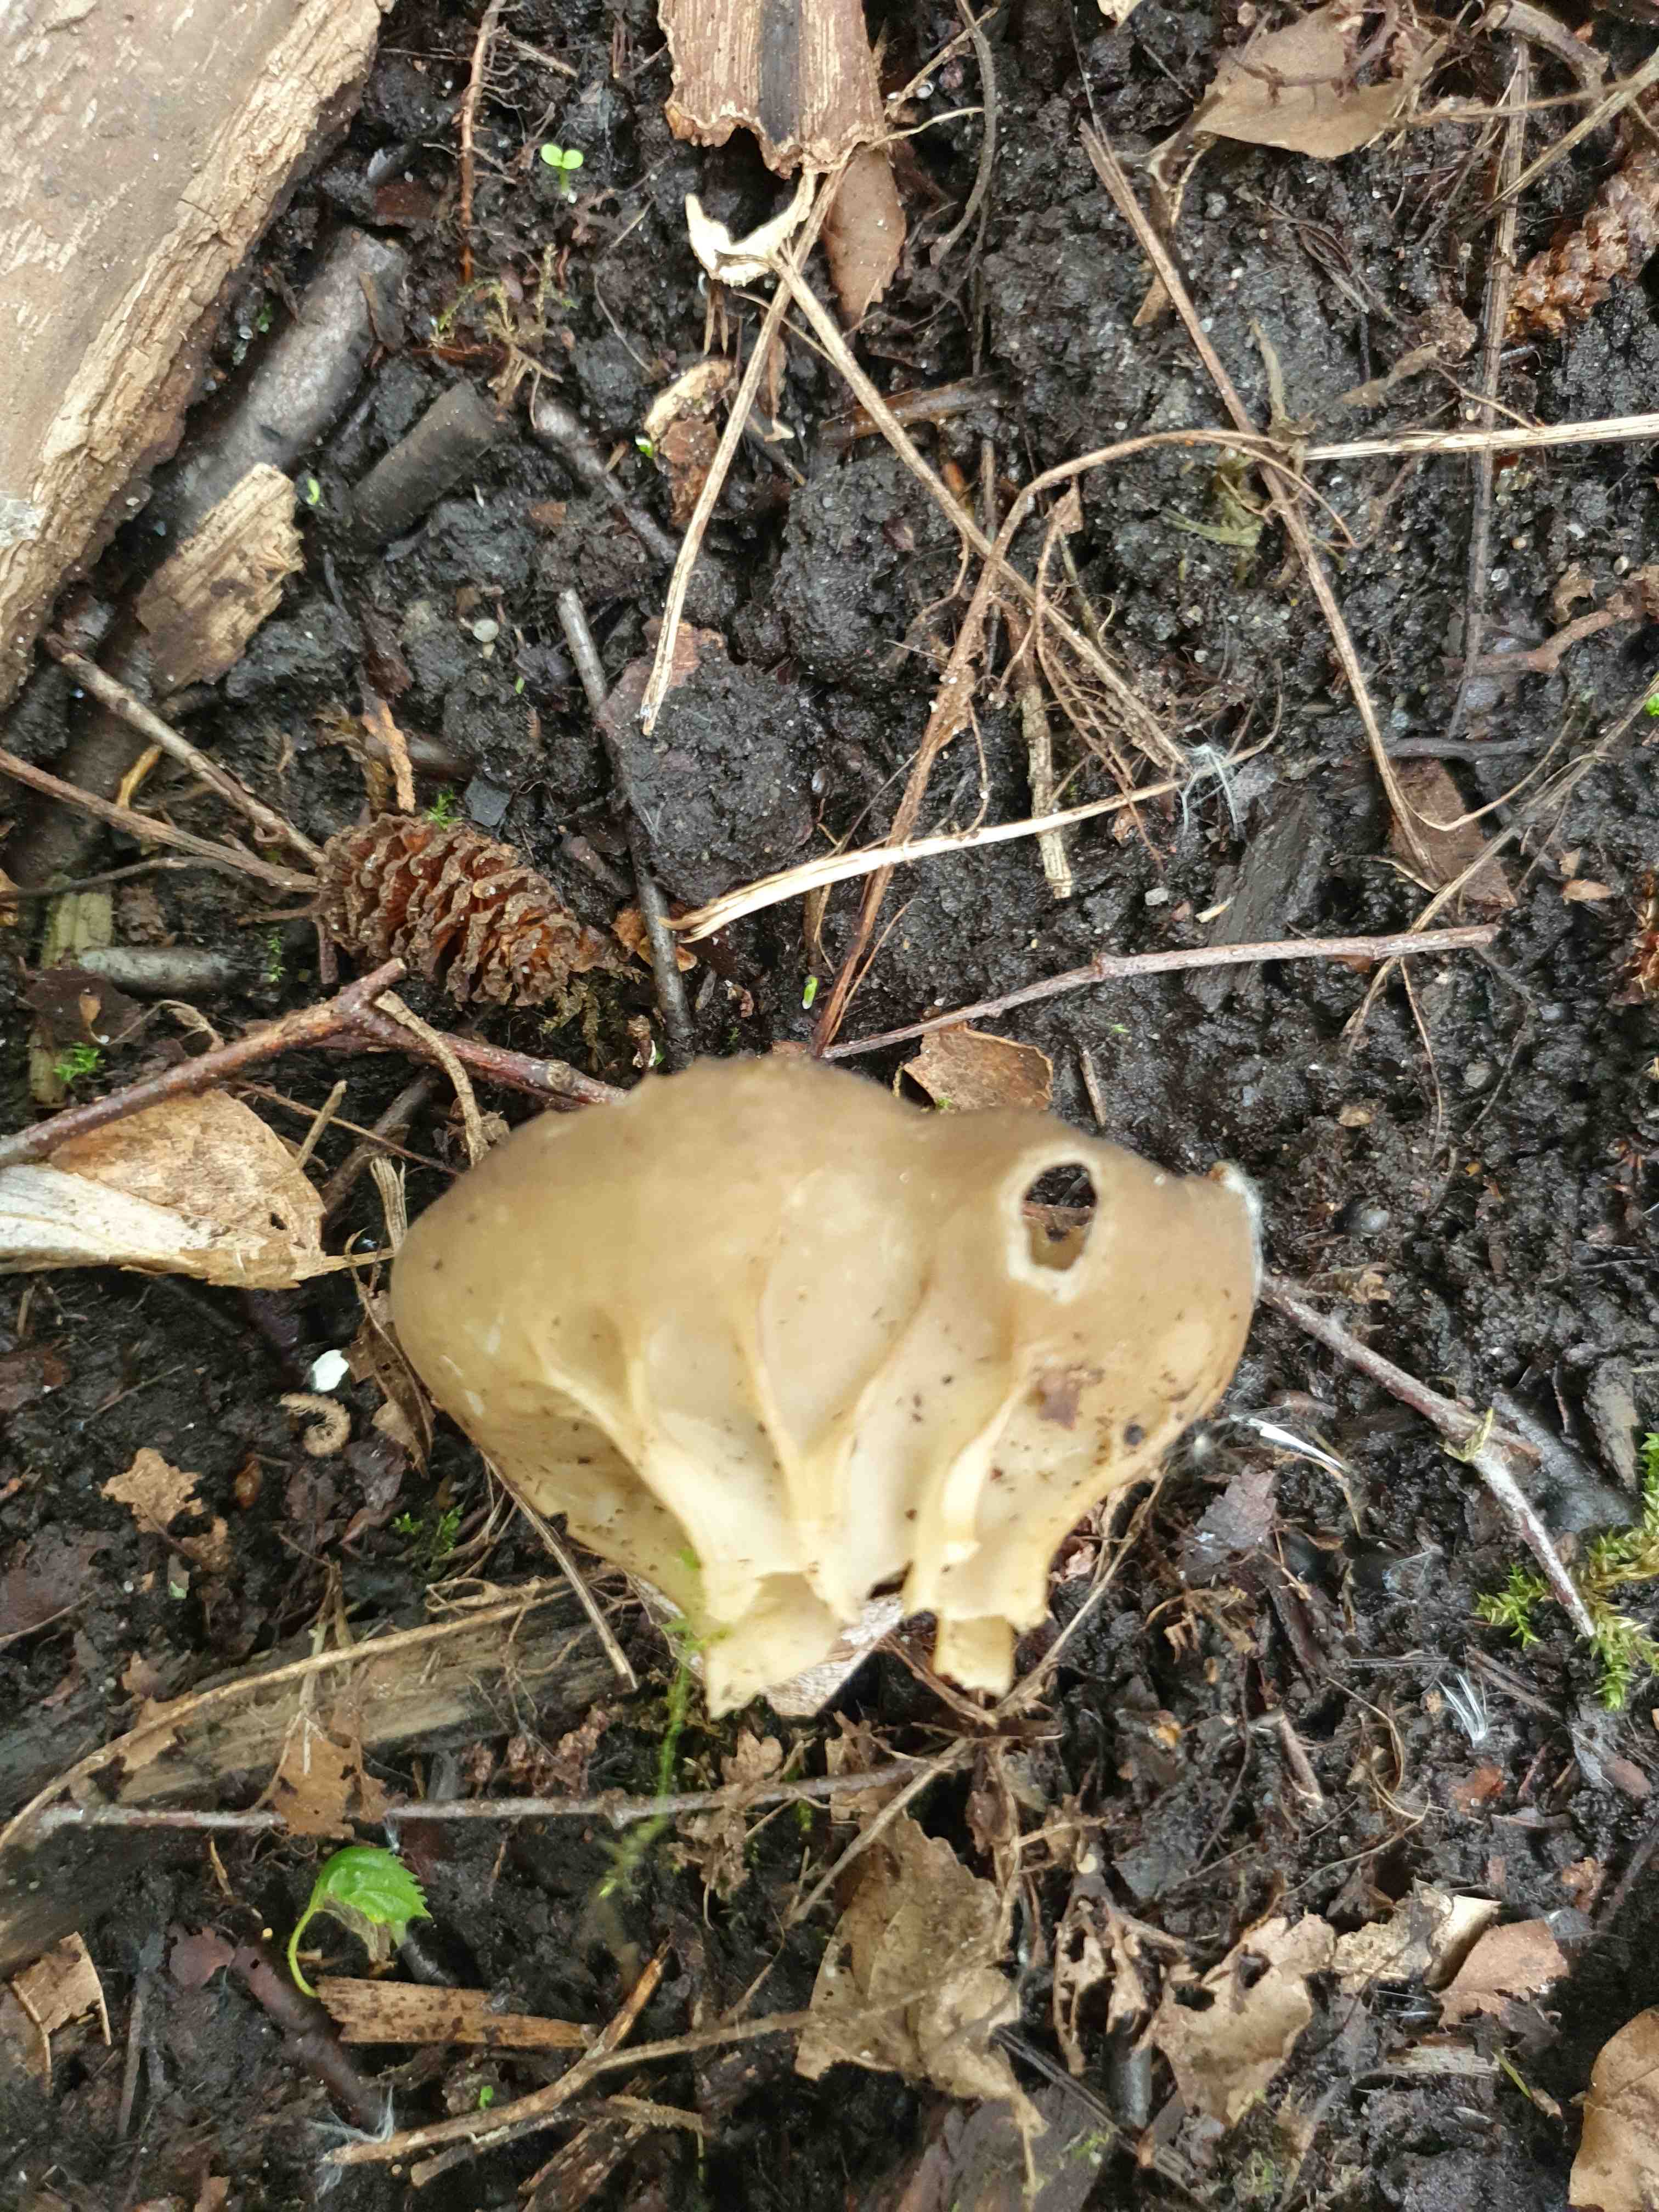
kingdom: Fungi
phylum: Ascomycota
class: Pezizomycetes
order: Pezizales
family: Helvellaceae
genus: Helvella
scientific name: Helvella acetabulum
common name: pokal-foldhat
